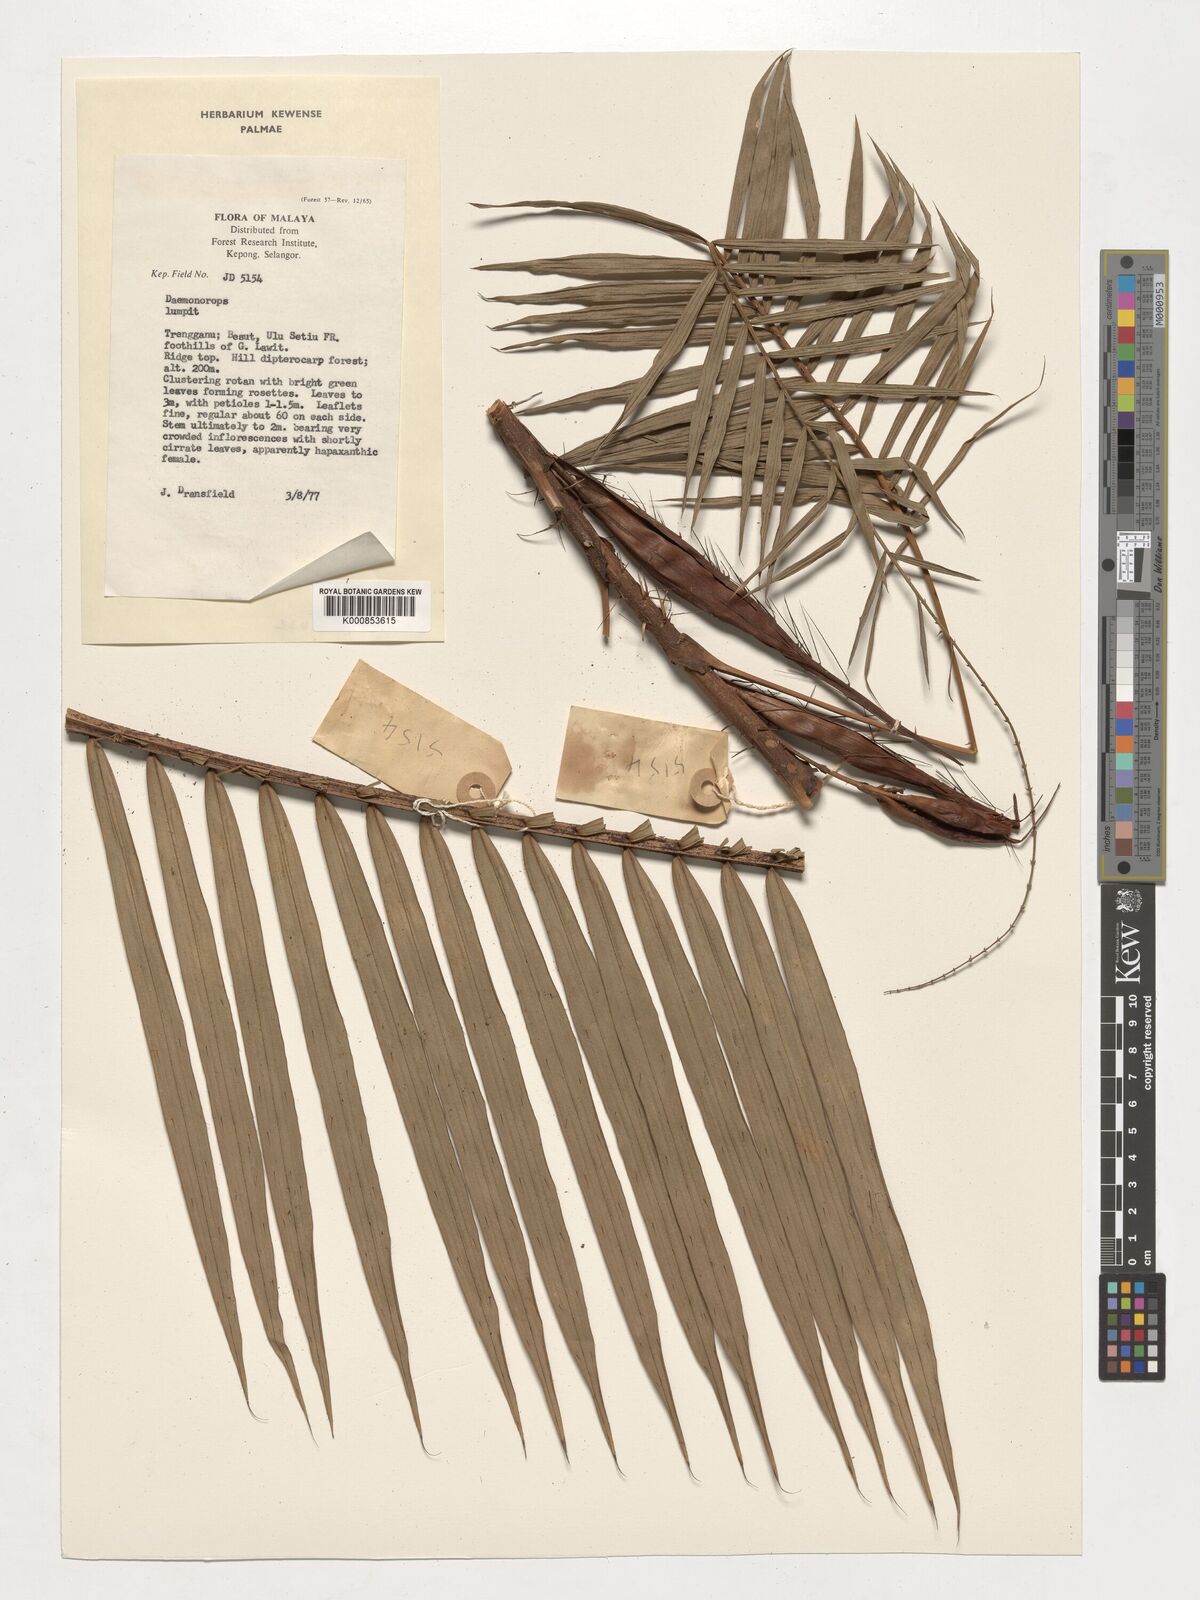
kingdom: Plantae
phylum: Tracheophyta
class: Liliopsida
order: Arecales
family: Arecaceae
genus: Daemonorops
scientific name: Daemonorops
